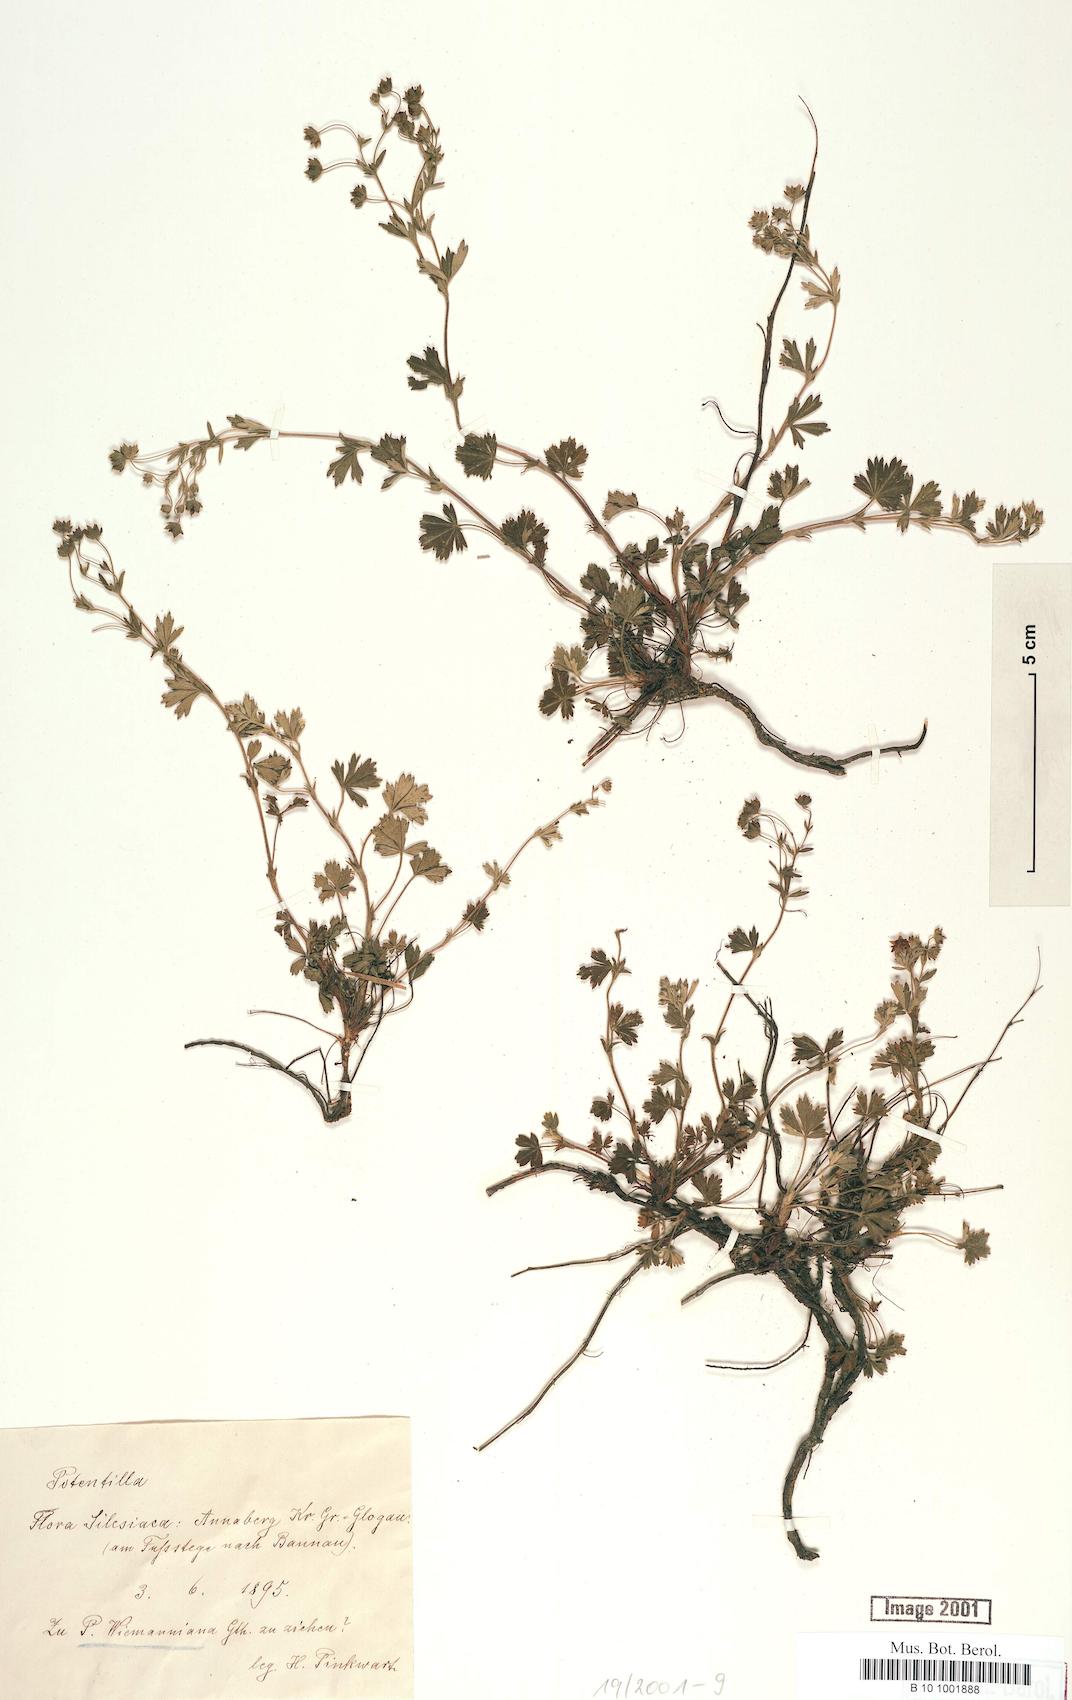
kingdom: Plantae
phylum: Tracheophyta
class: Magnoliopsida
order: Rosales
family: Rosaceae
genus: Potentilla
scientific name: Potentilla
